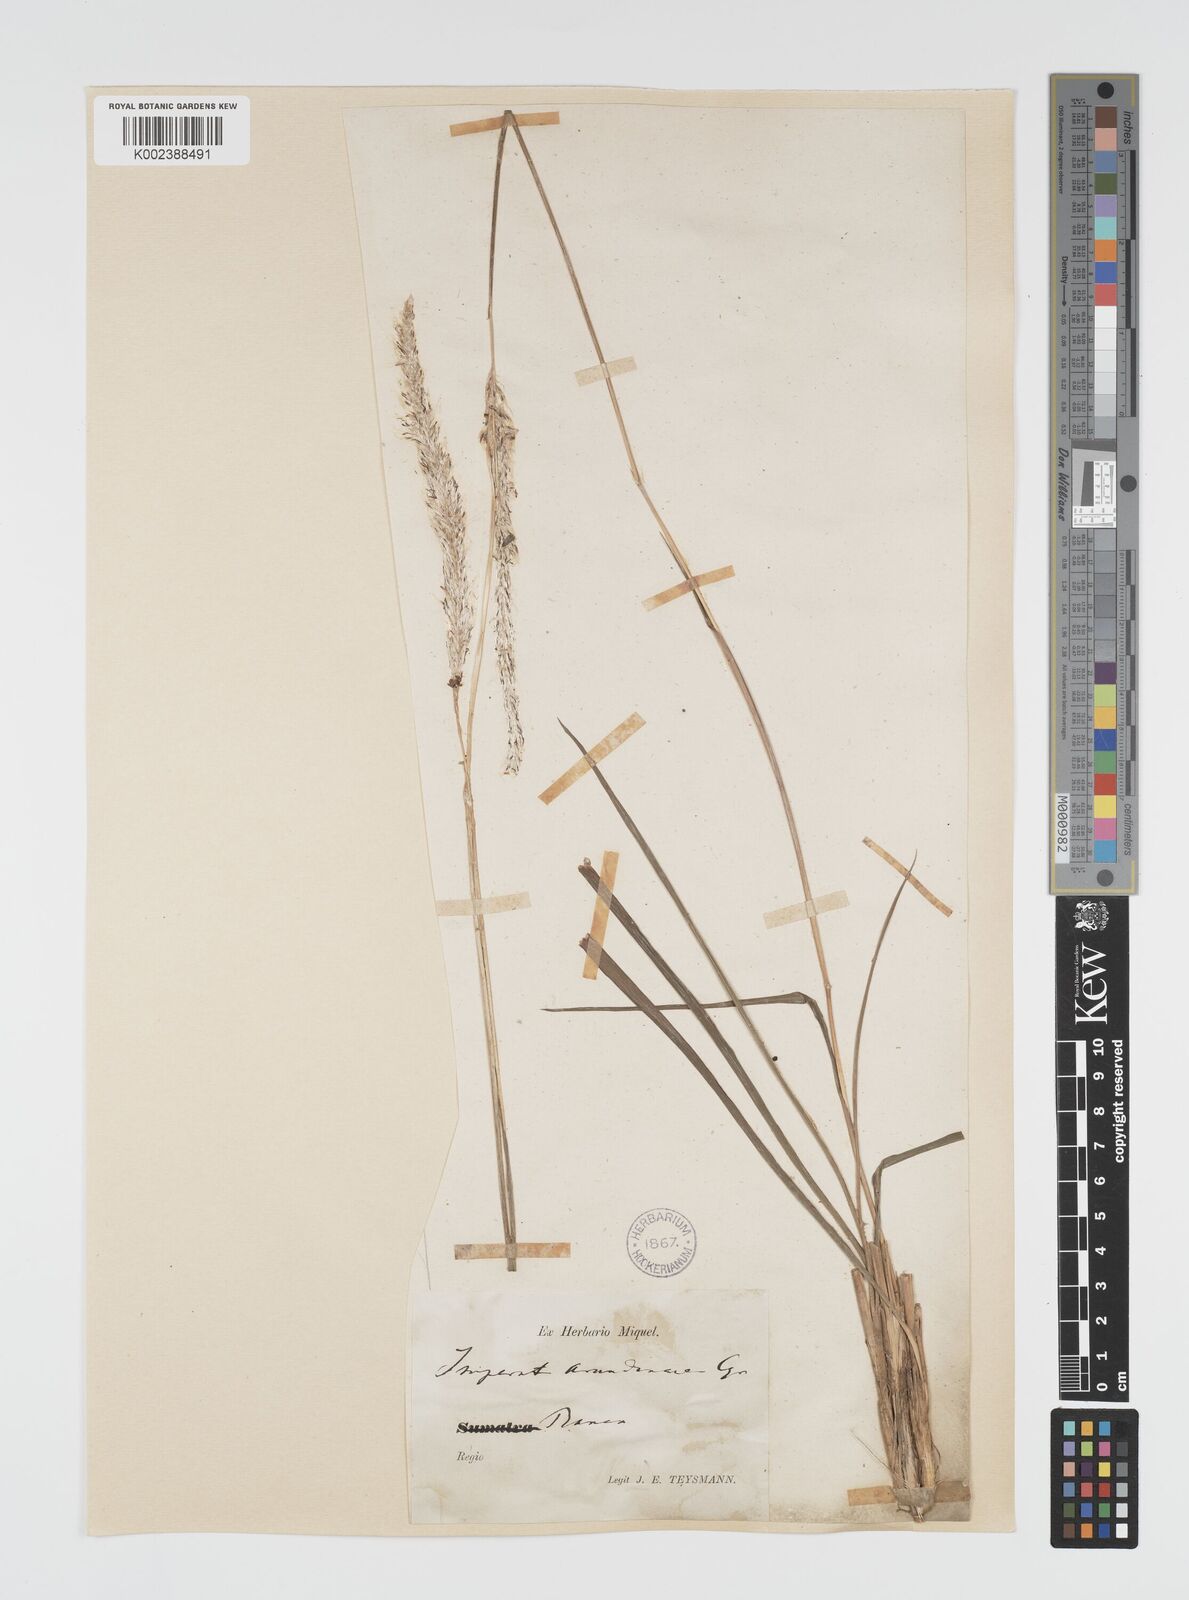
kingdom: Plantae
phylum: Tracheophyta
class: Liliopsida
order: Poales
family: Poaceae
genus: Imperata
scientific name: Imperata cylindrica
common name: Cogongrass
